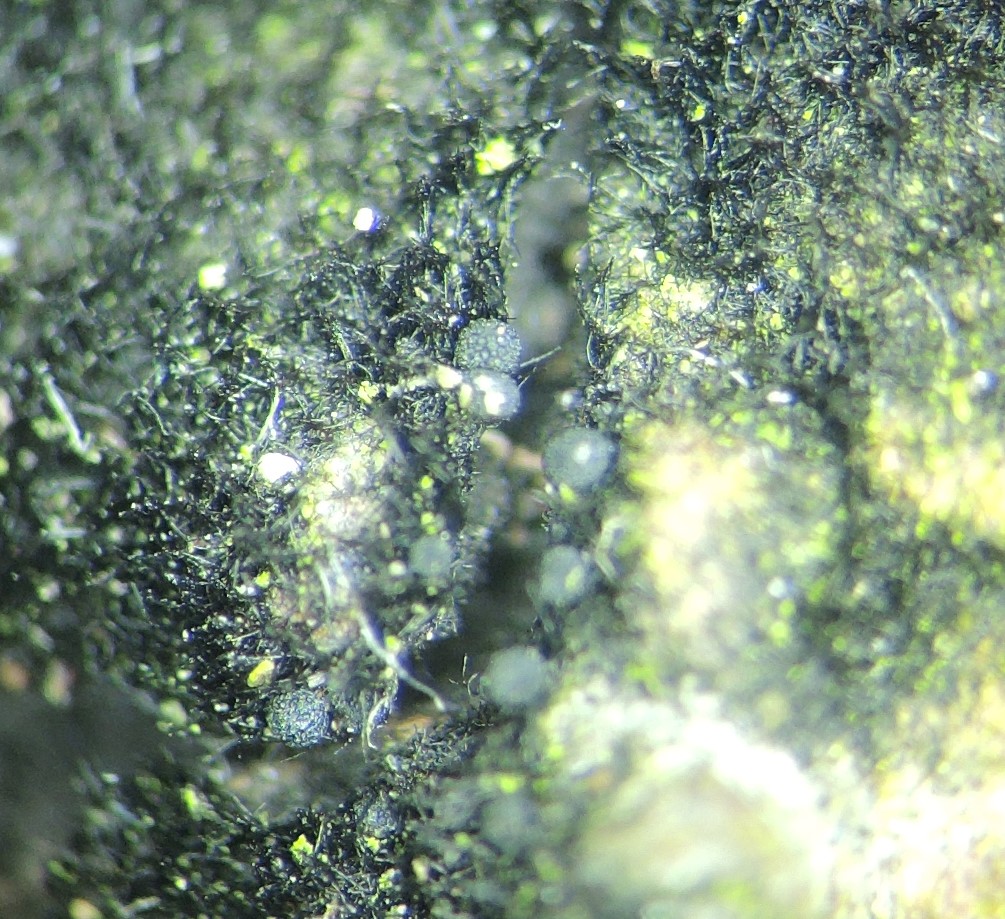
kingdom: Fungi
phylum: Ascomycota
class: Sordariomycetes
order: Coronophorales
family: Chaetosphaerellaceae
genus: Chaetosphaerella
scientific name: Chaetosphaerella phaeostroma
